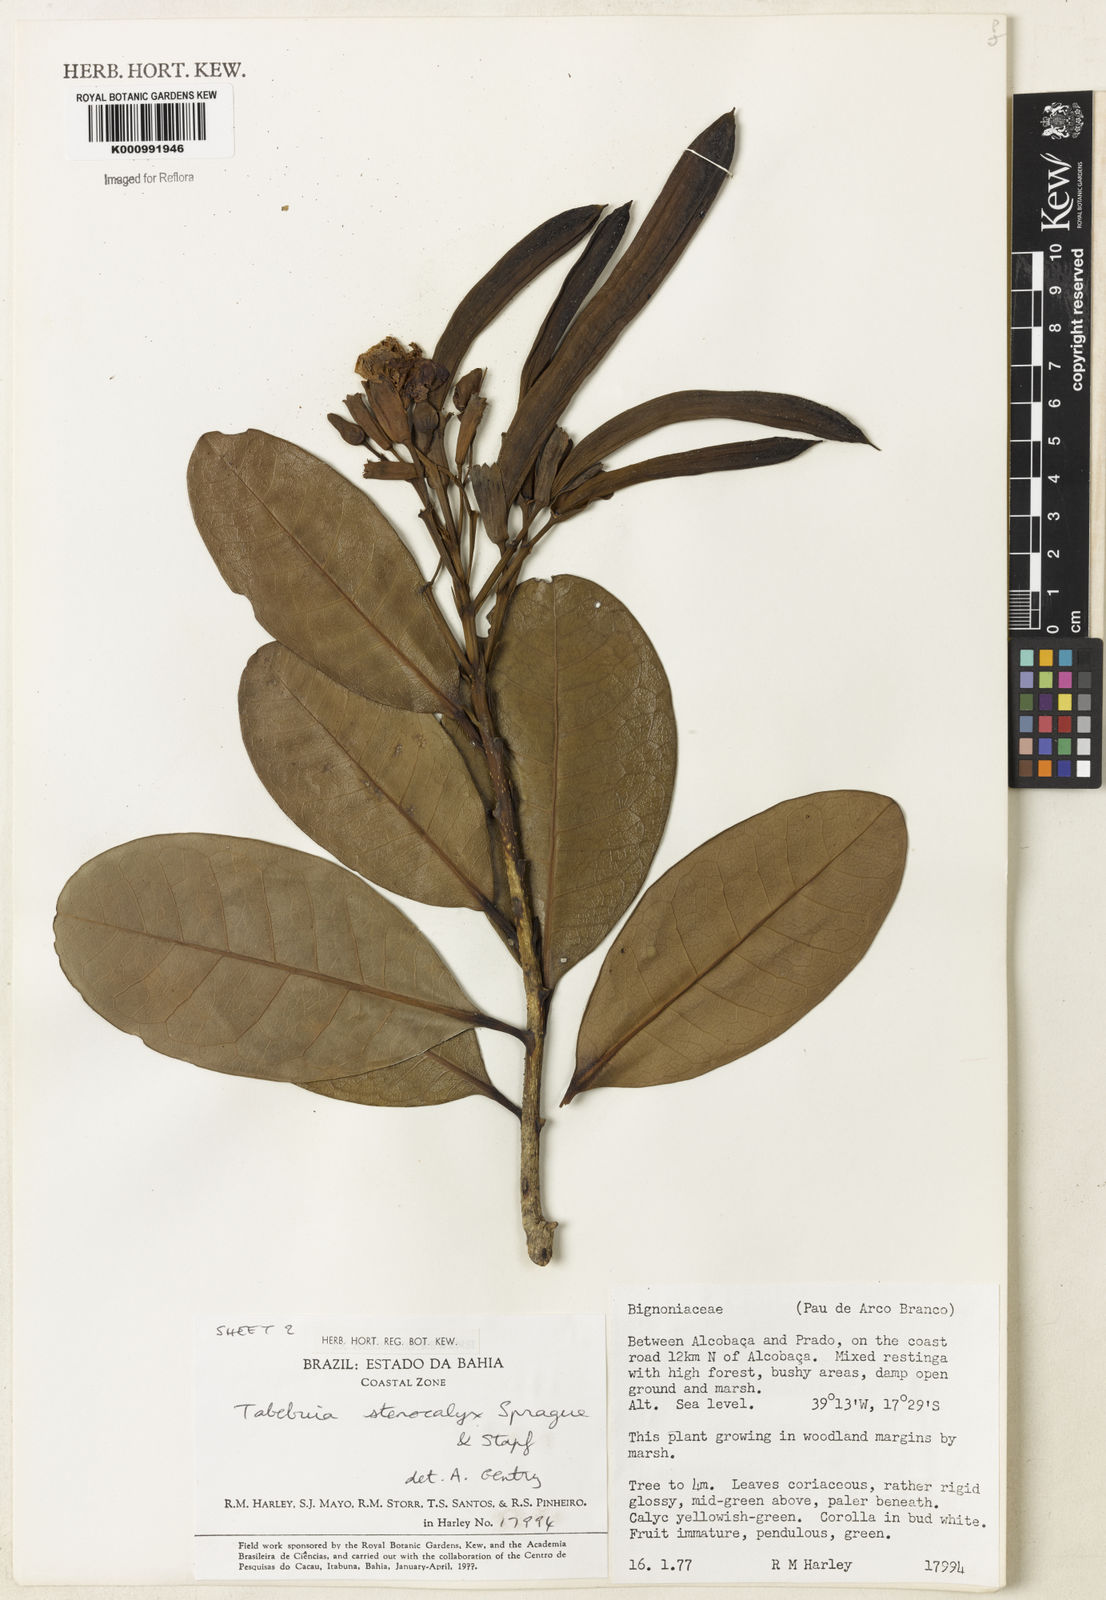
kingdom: Plantae
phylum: Tracheophyta
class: Magnoliopsida
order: Lamiales
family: Bignoniaceae
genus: Tabebuia
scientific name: Tabebuia stenocalyx
